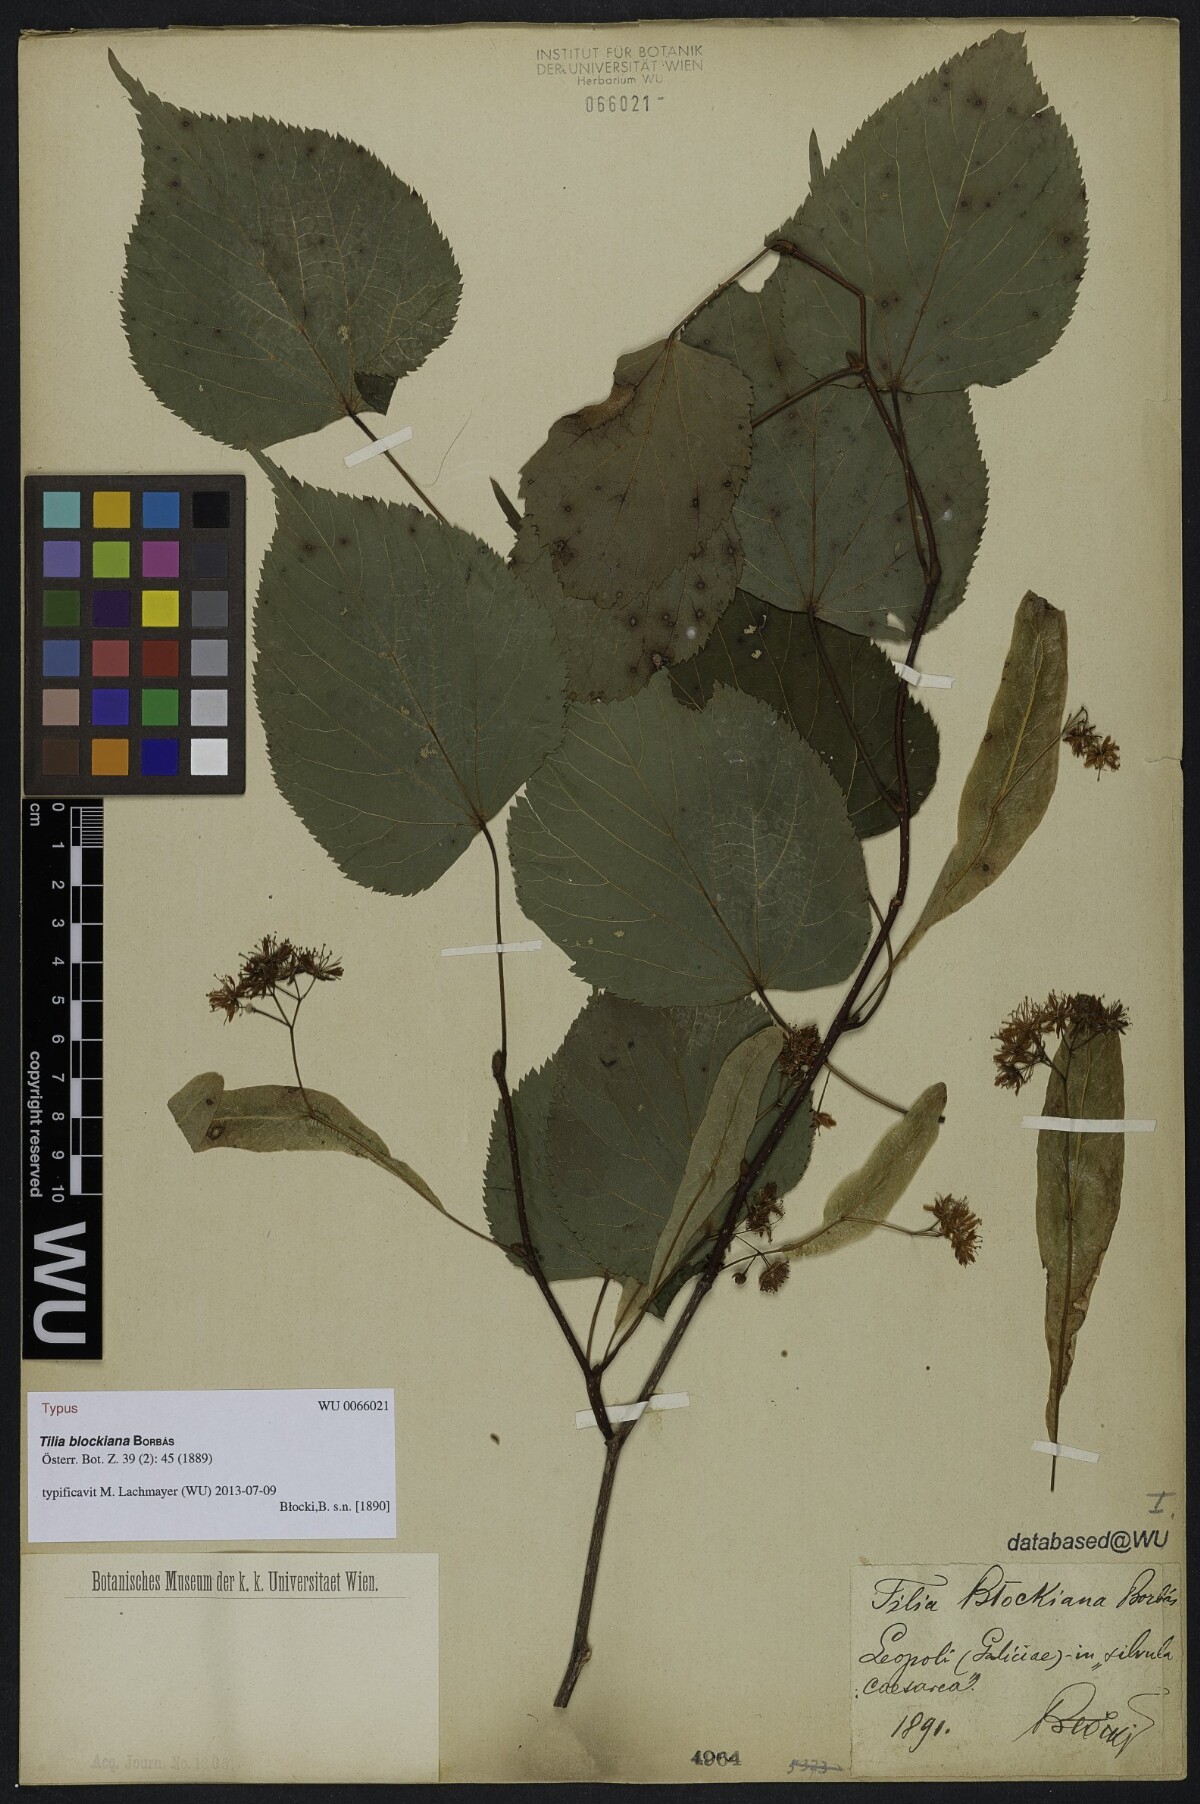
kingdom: Plantae
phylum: Tracheophyta
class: Magnoliopsida
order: Malvales
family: Malvaceae
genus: Tilia
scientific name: Tilia blechiana
